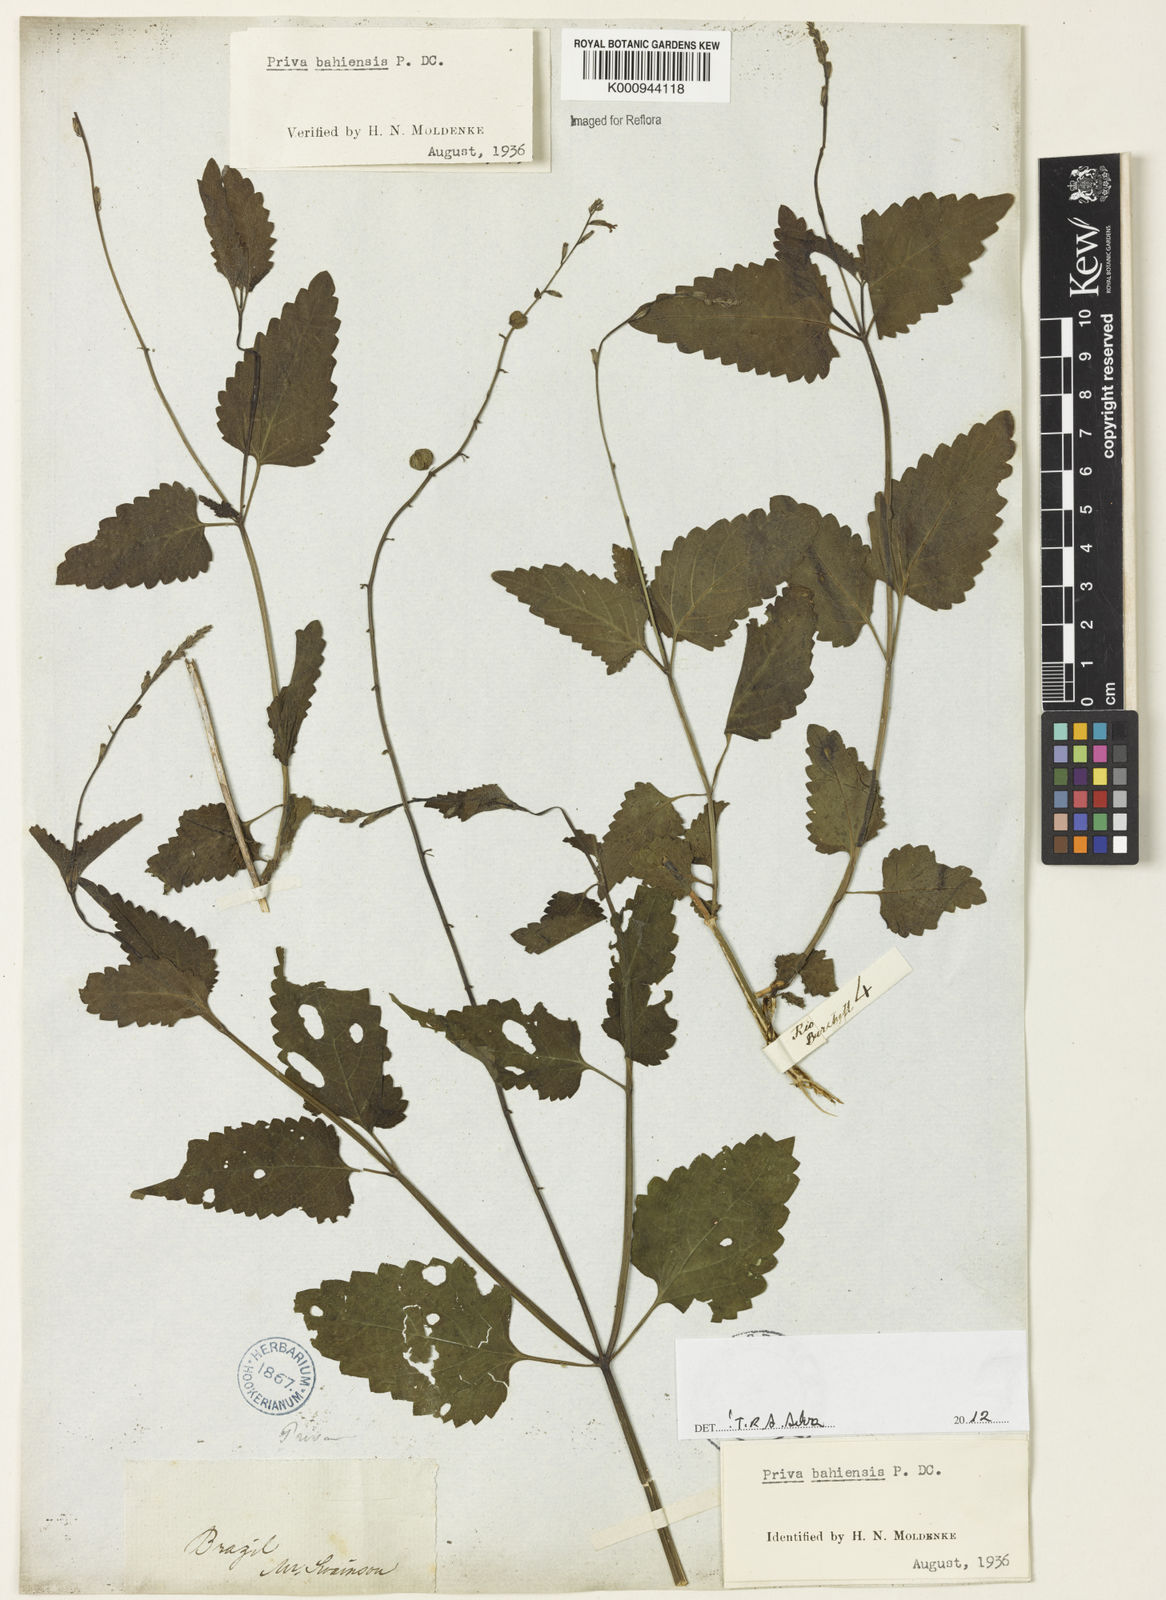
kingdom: Plantae
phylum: Tracheophyta
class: Magnoliopsida
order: Lamiales
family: Verbenaceae
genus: Priva
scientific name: Priva
